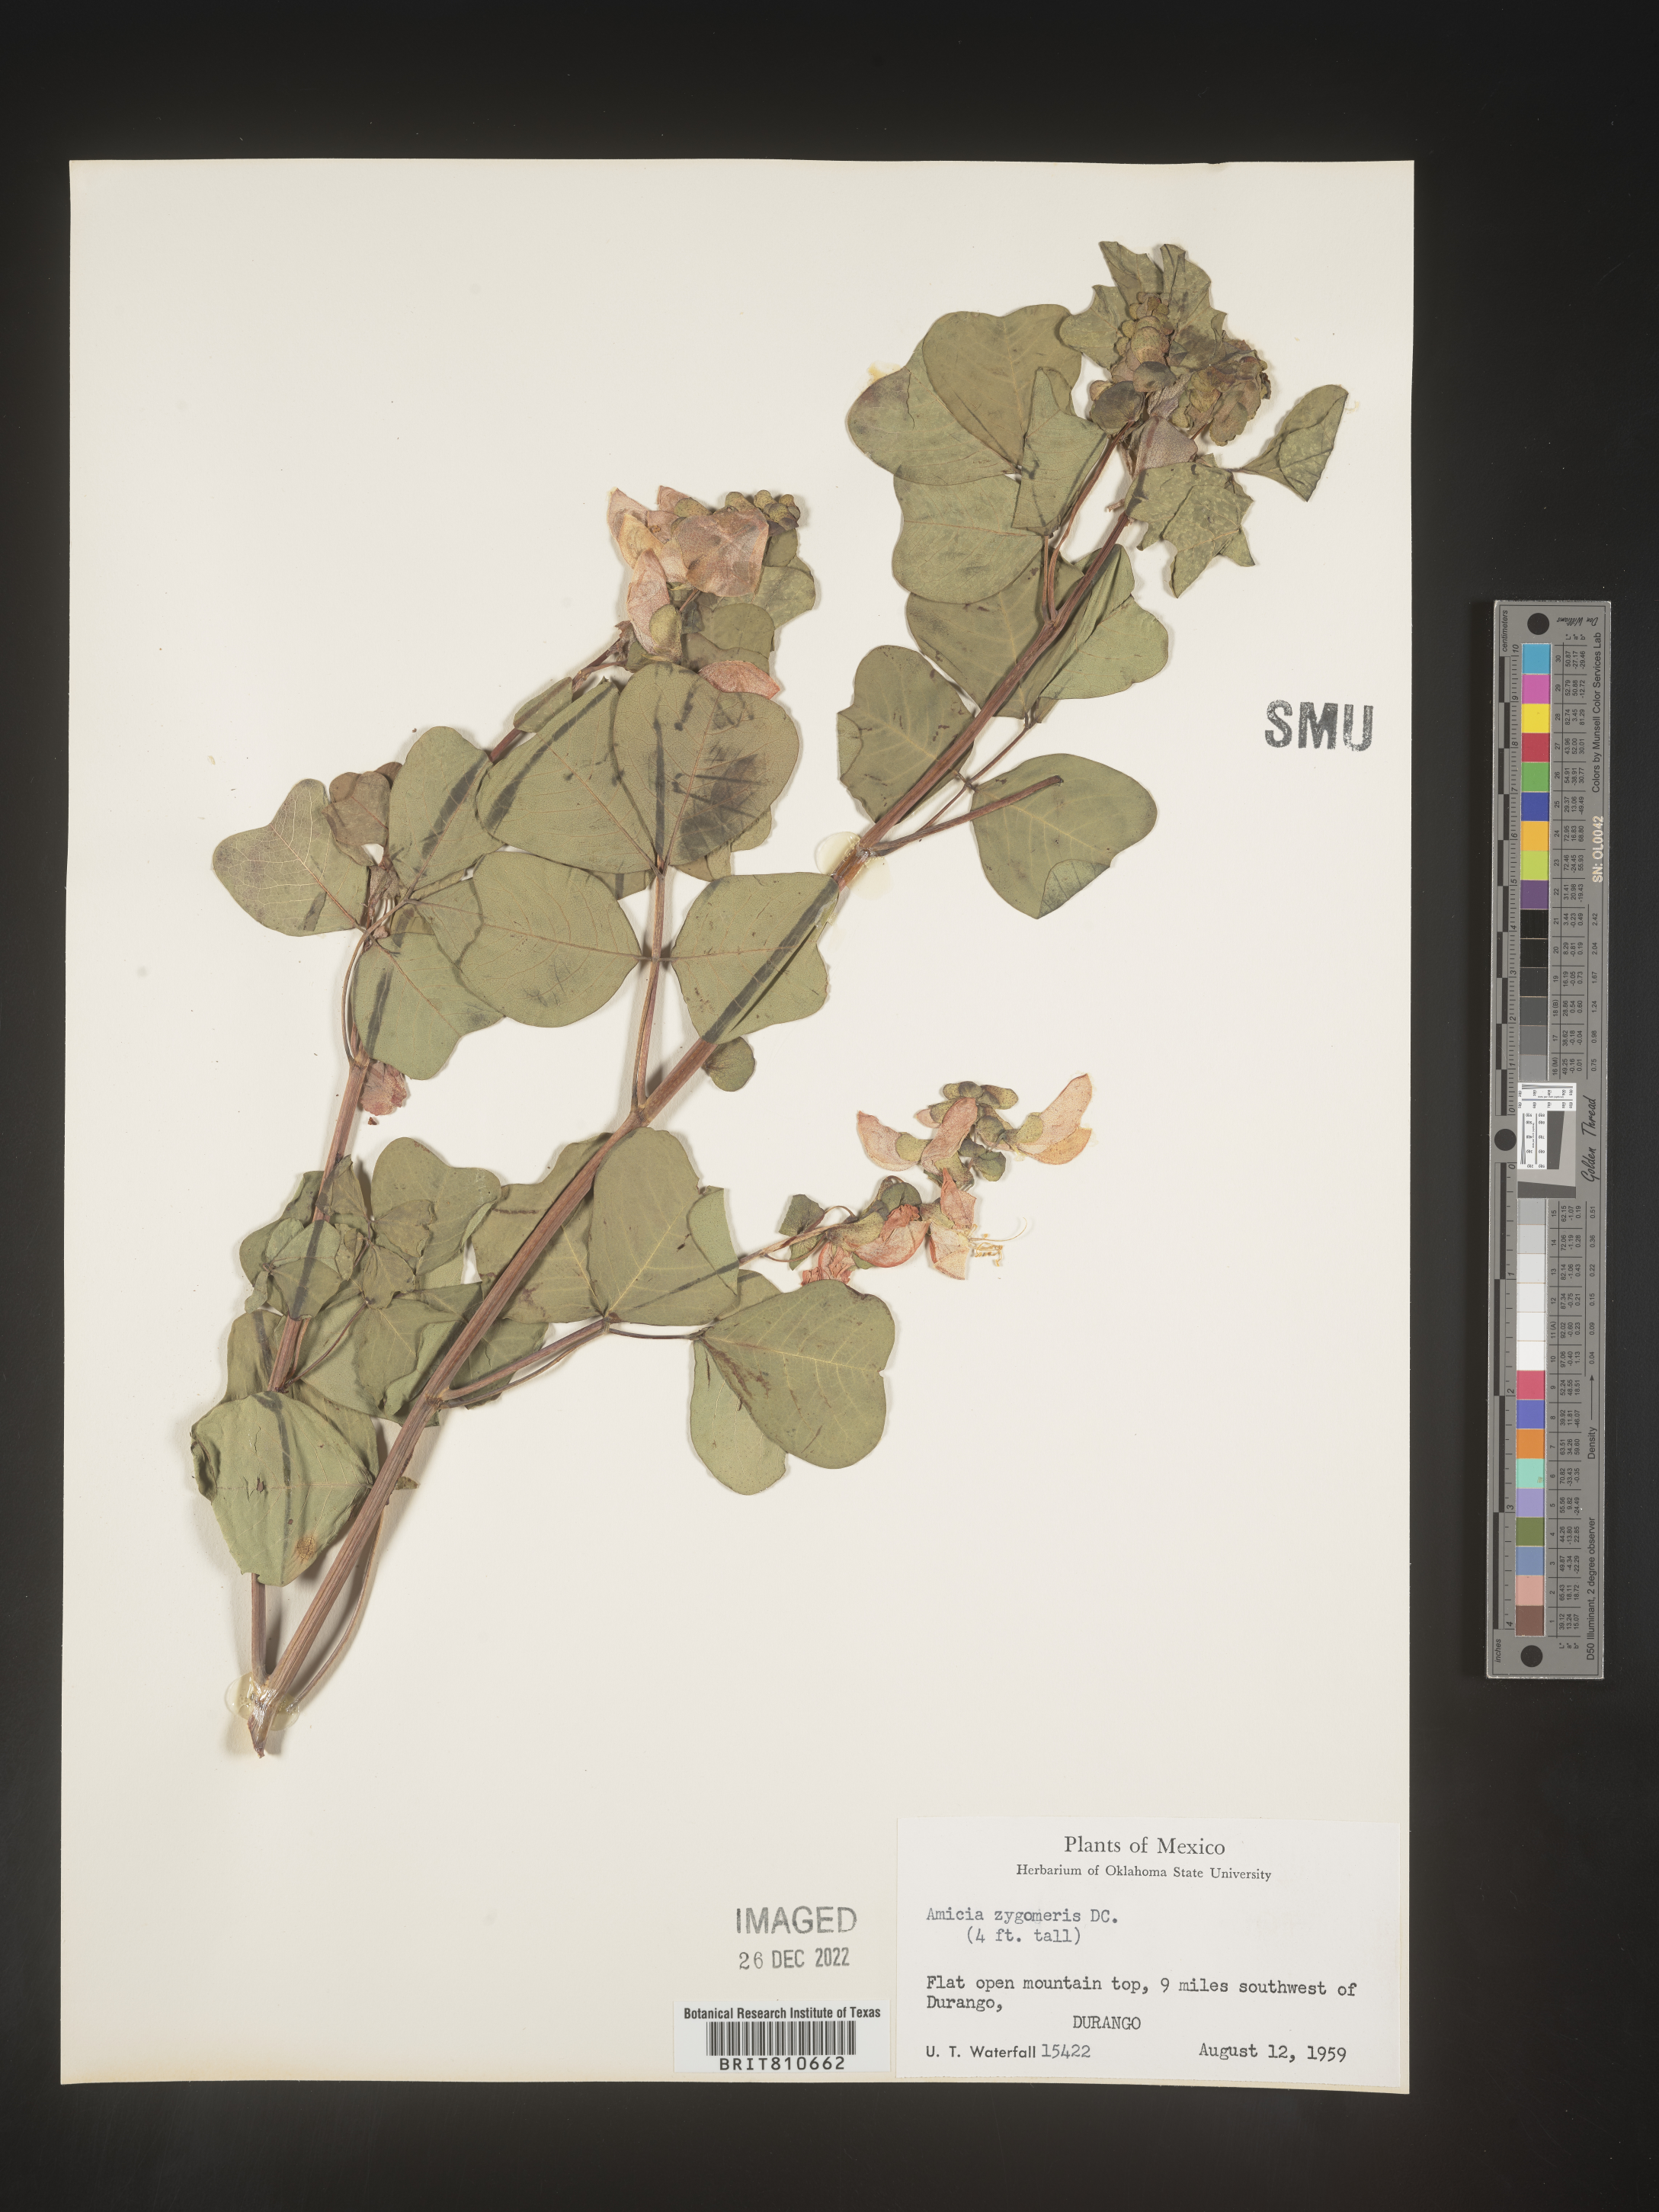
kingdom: Plantae
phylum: Tracheophyta
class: Magnoliopsida
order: Fabales
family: Fabaceae
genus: Amicia
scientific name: Amicia
